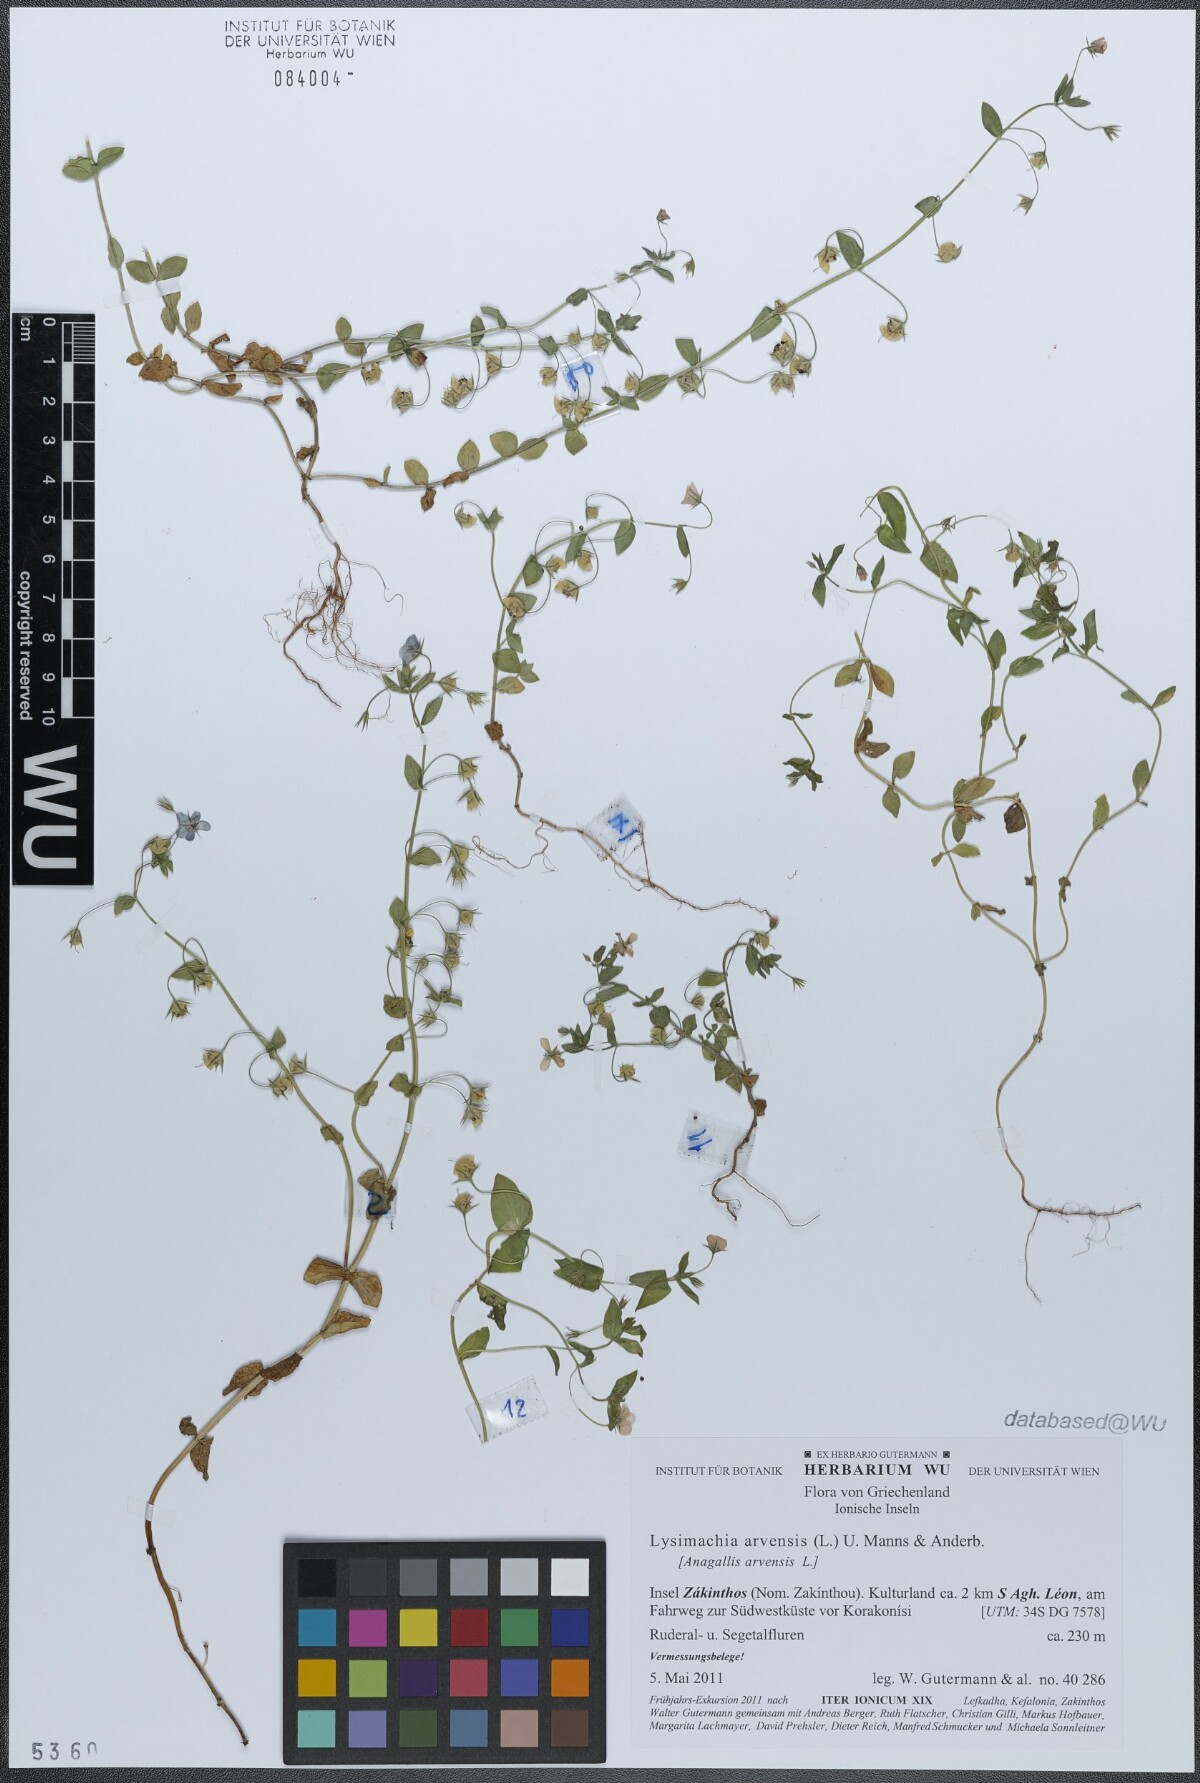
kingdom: Plantae
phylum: Tracheophyta
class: Magnoliopsida
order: Ericales
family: Primulaceae
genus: Lysimachia
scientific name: Lysimachia arvensis
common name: Scarlet pimpernel
